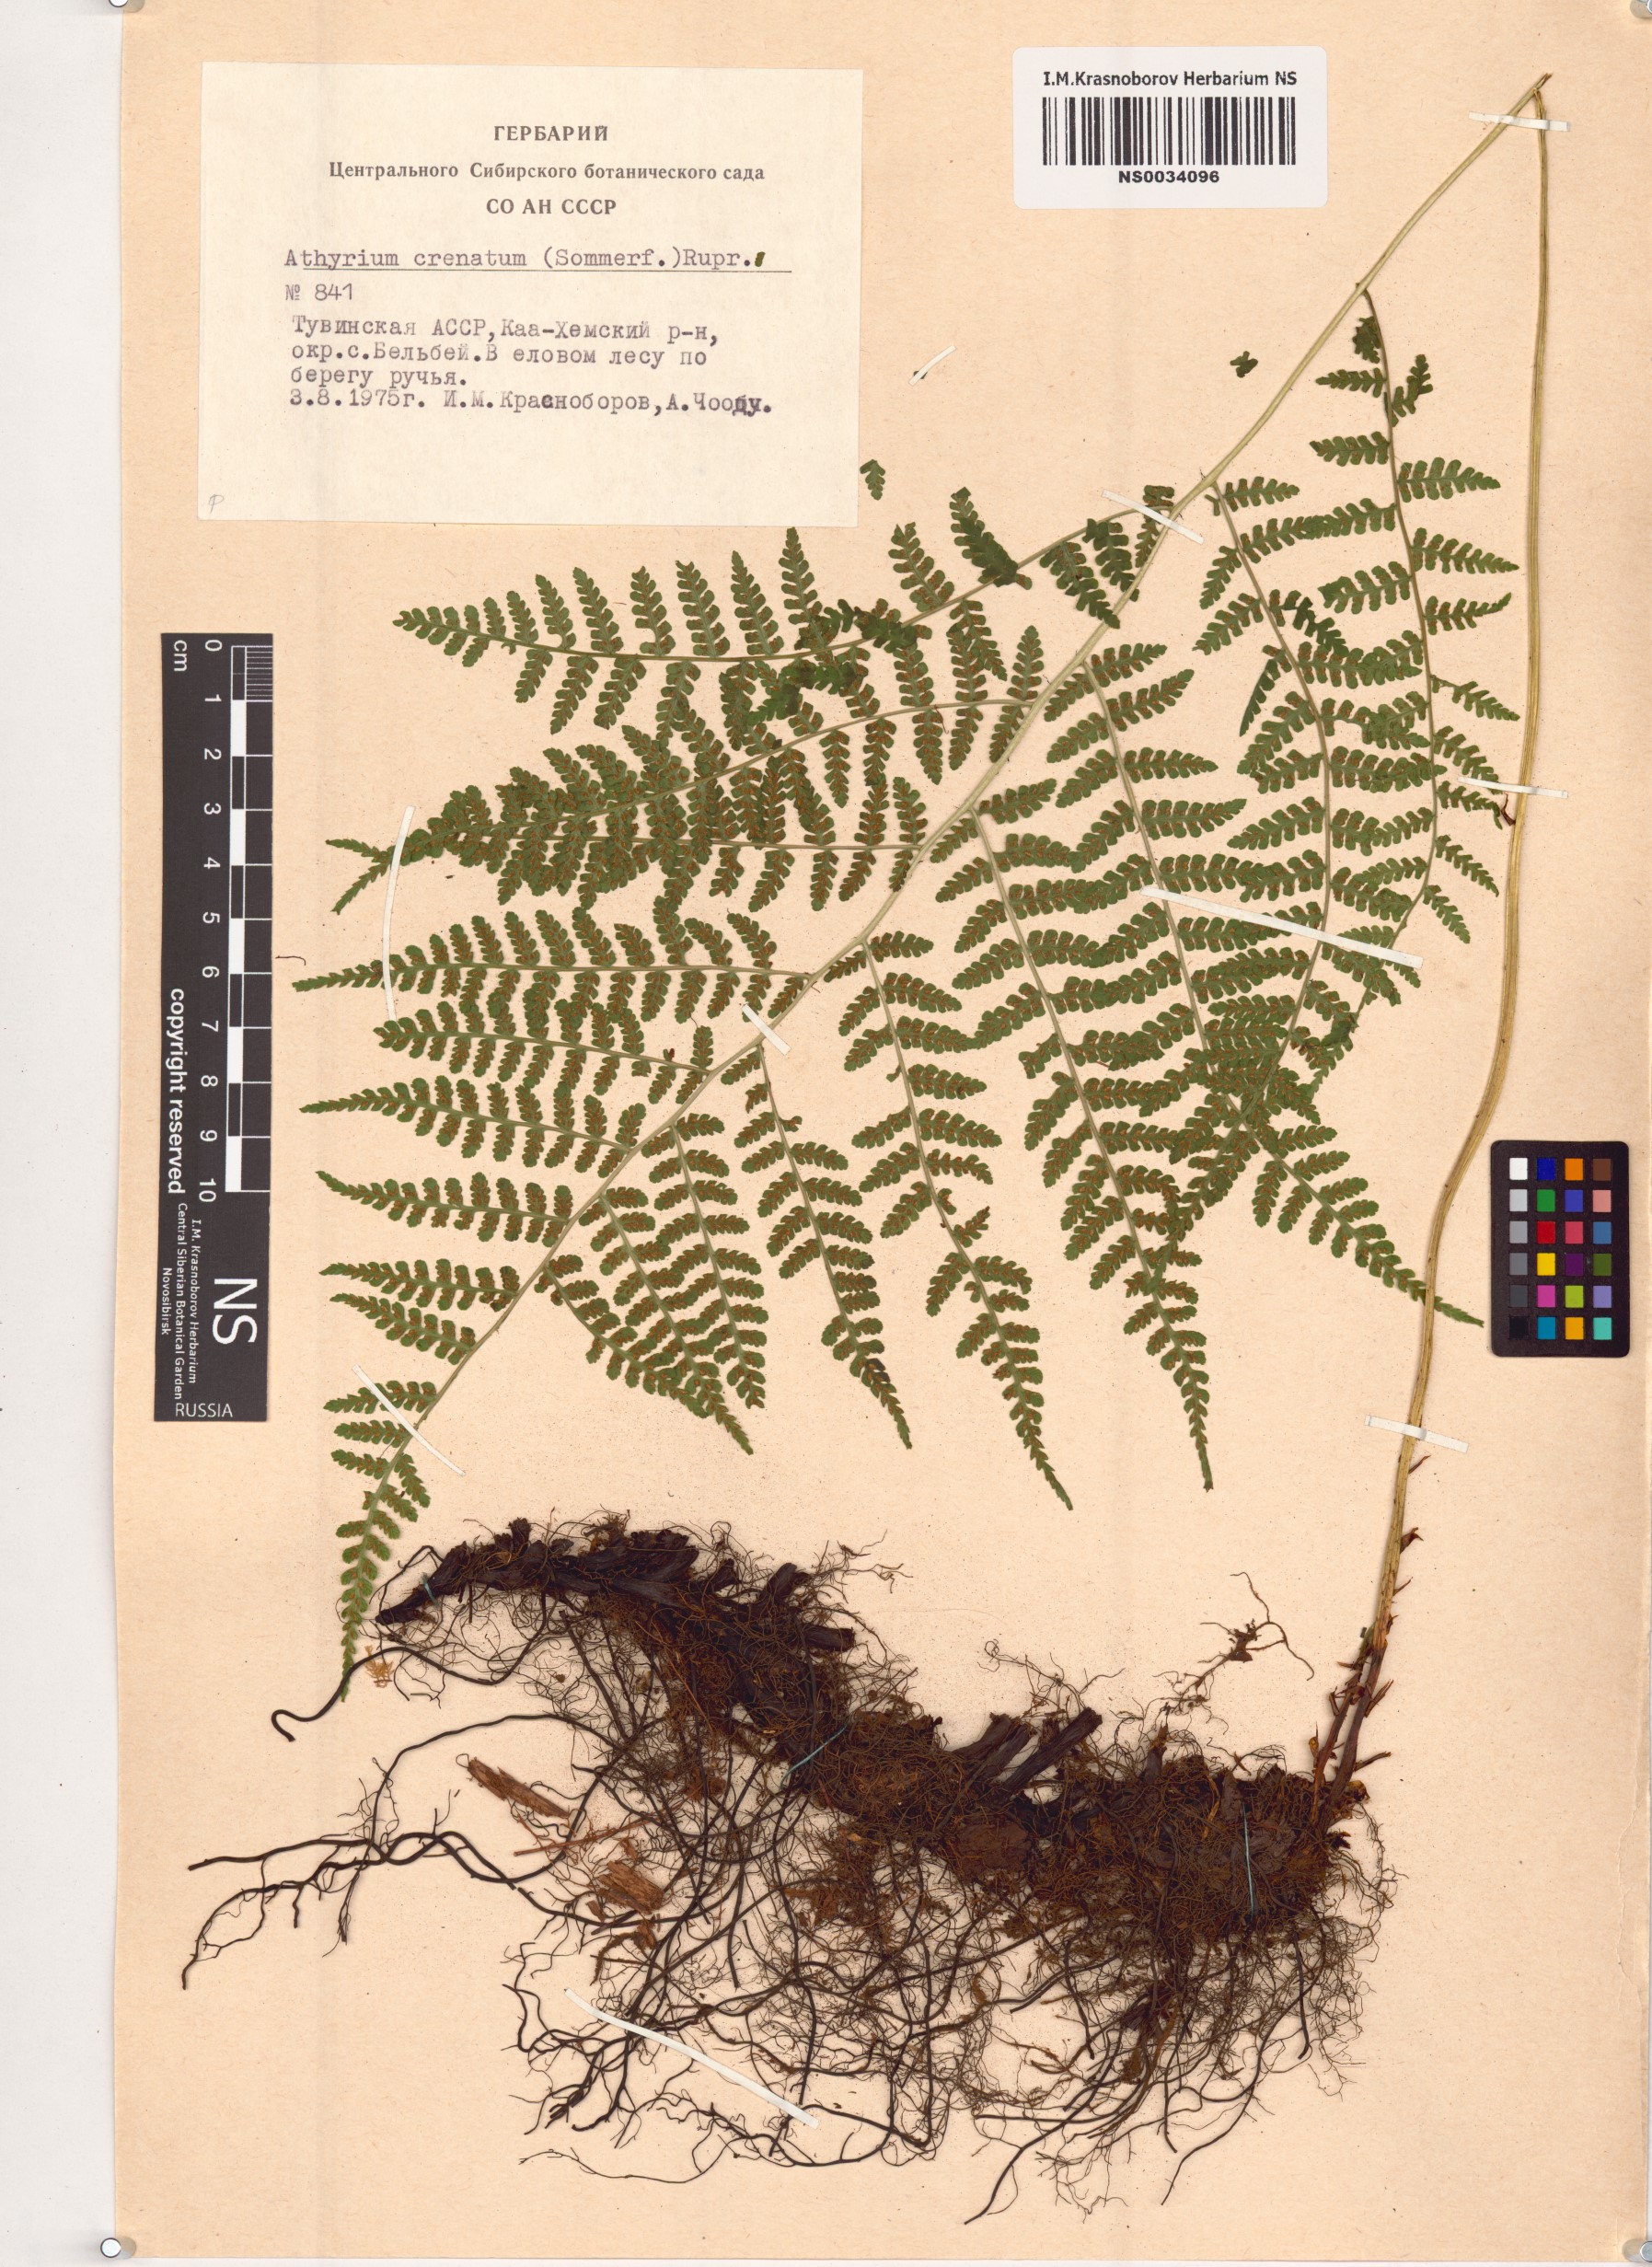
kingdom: Plantae
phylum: Tracheophyta
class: Polypodiopsida
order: Polypodiales
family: Athyriaceae
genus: Diplazium
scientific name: Diplazium sibiricum
